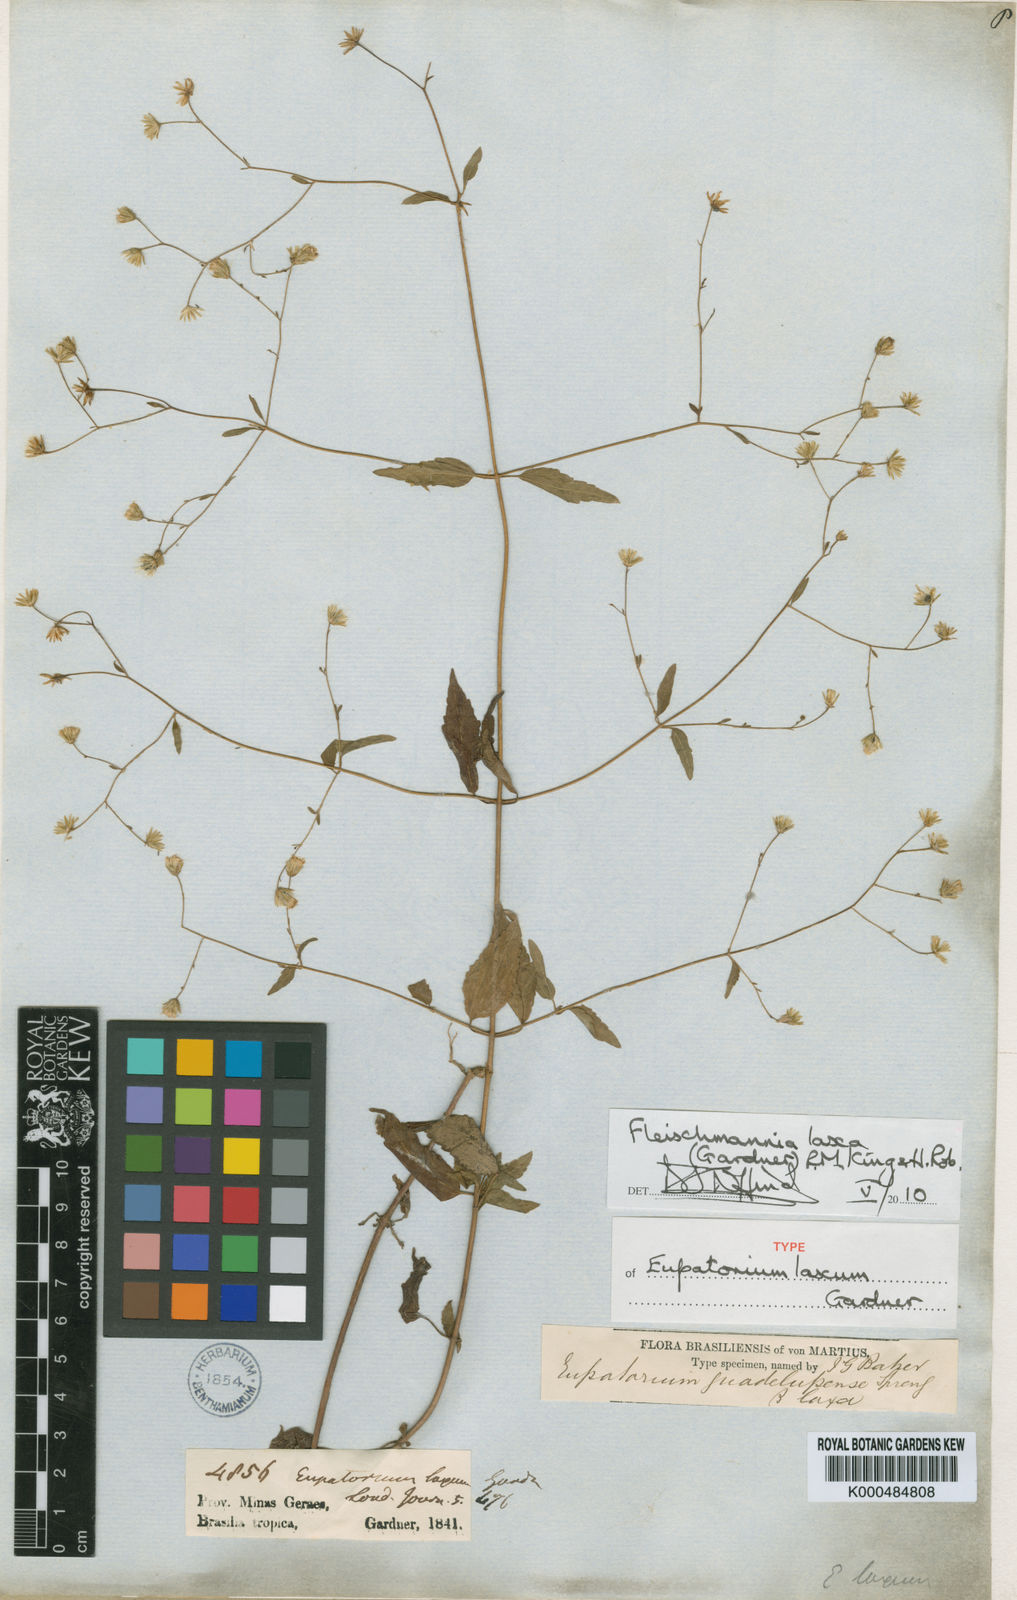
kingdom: Plantae
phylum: Tracheophyta
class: Magnoliopsida
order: Asterales
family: Asteraceae
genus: Fleischmannia
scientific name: Fleischmannia laxa
